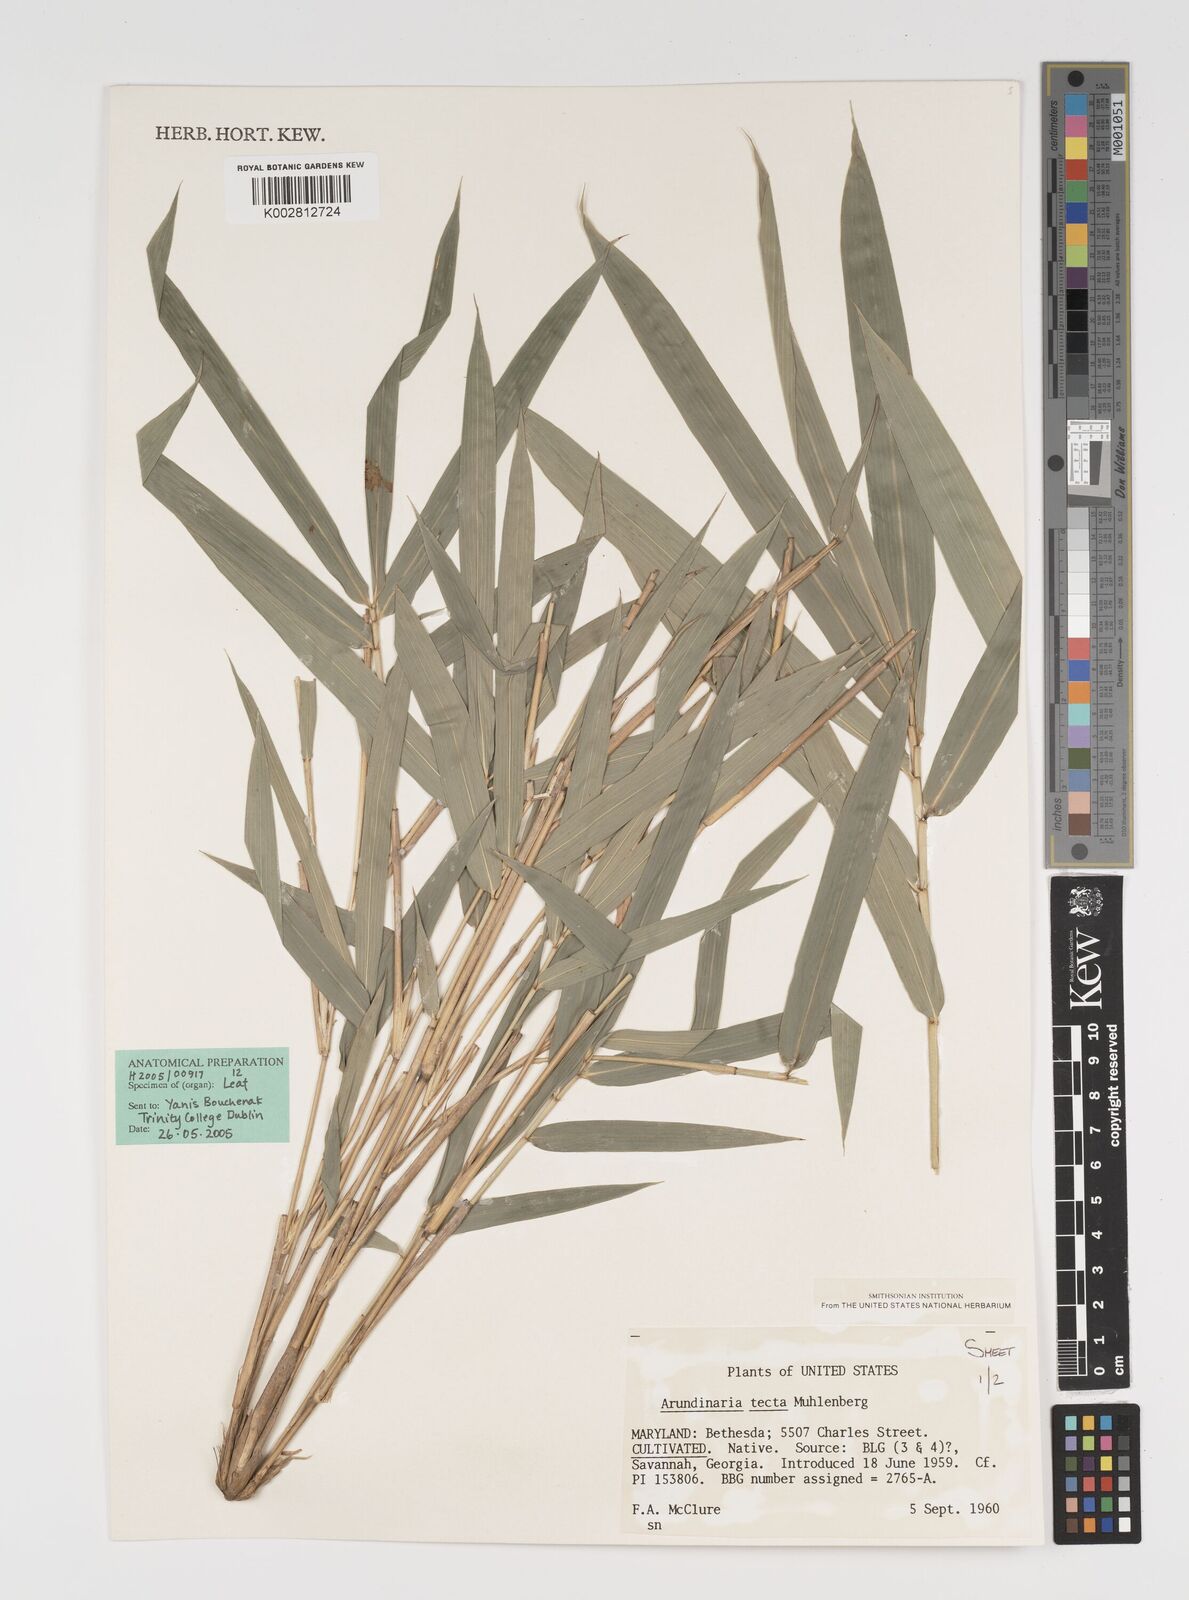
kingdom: Plantae
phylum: Tracheophyta
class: Liliopsida
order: Poales
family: Poaceae
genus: Arundinaria
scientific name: Arundinaria tecta
